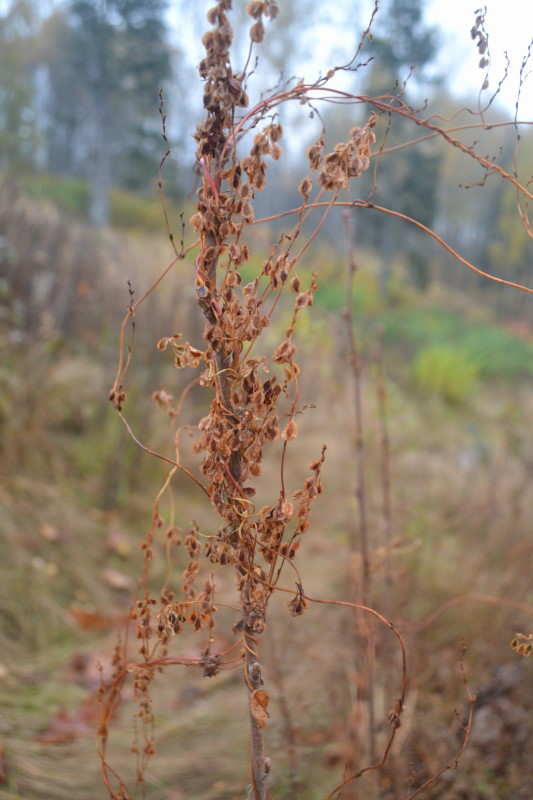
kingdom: Plantae
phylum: Tracheophyta
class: Magnoliopsida
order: Caryophyllales
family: Polygonaceae
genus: Fallopia
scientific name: Fallopia convolvulus
